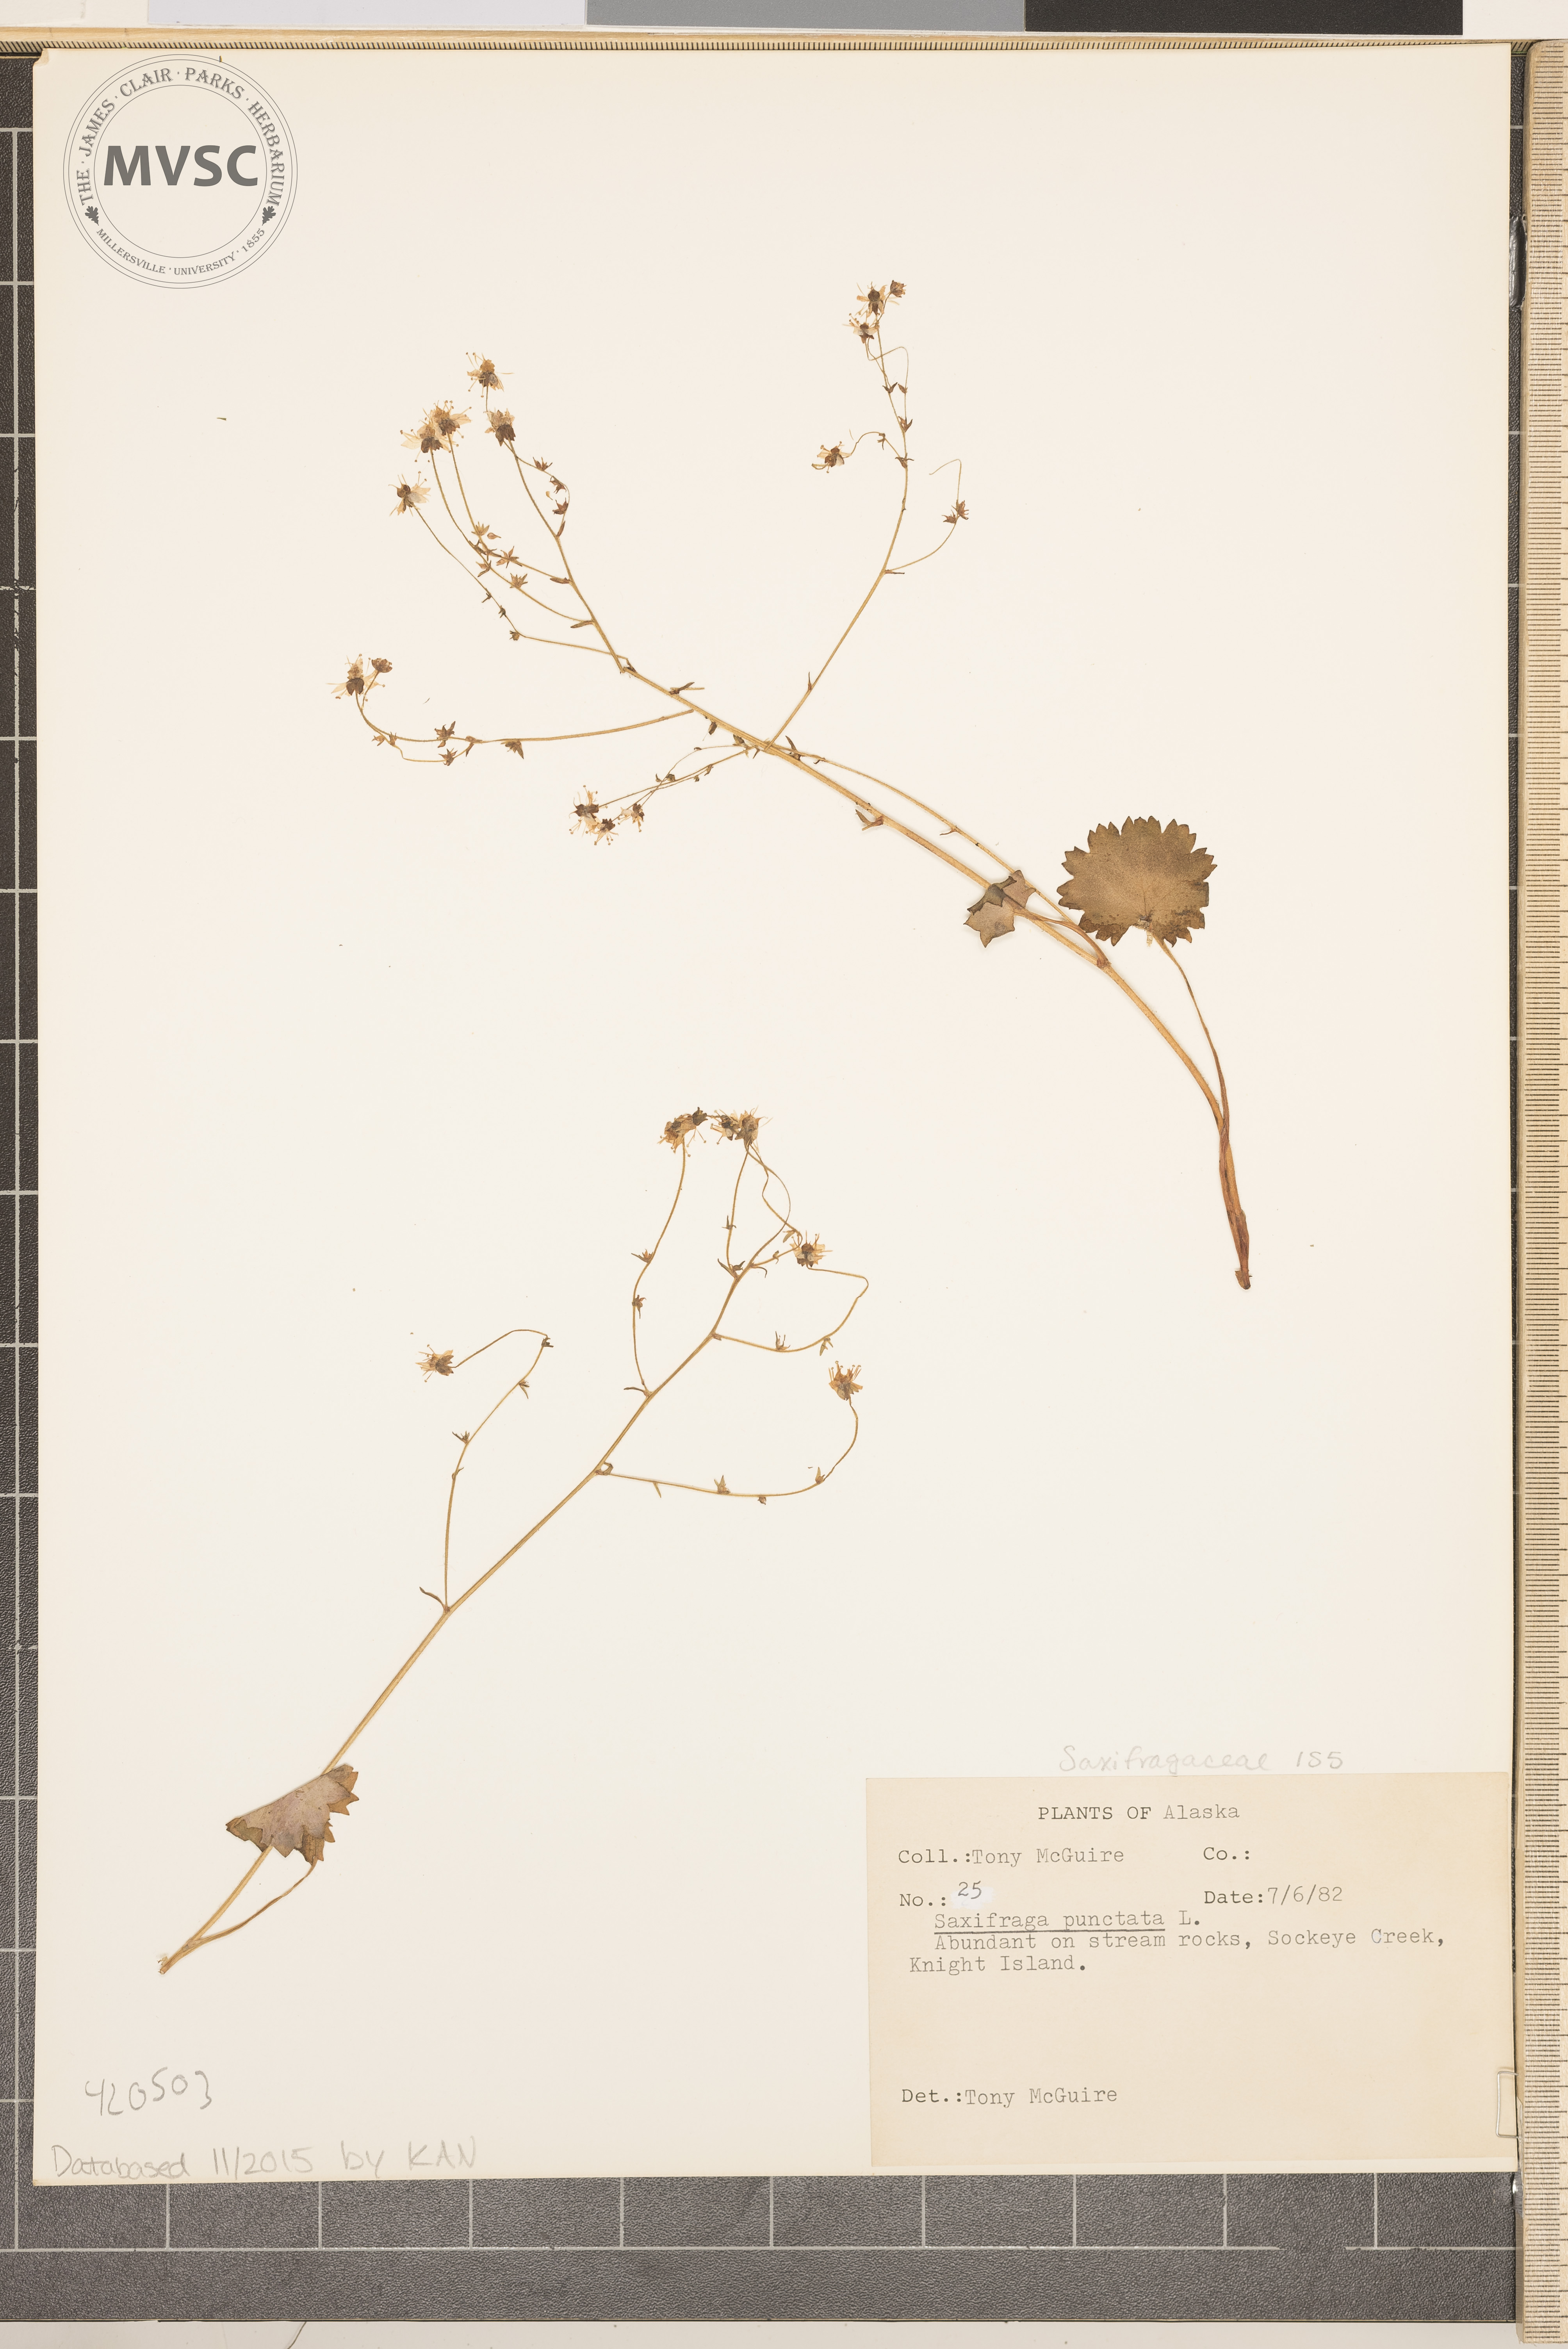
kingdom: Plantae
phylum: Tracheophyta
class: Magnoliopsida
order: Saxifragales
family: Saxifragaceae
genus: Micranthes
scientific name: Micranthes punctata
